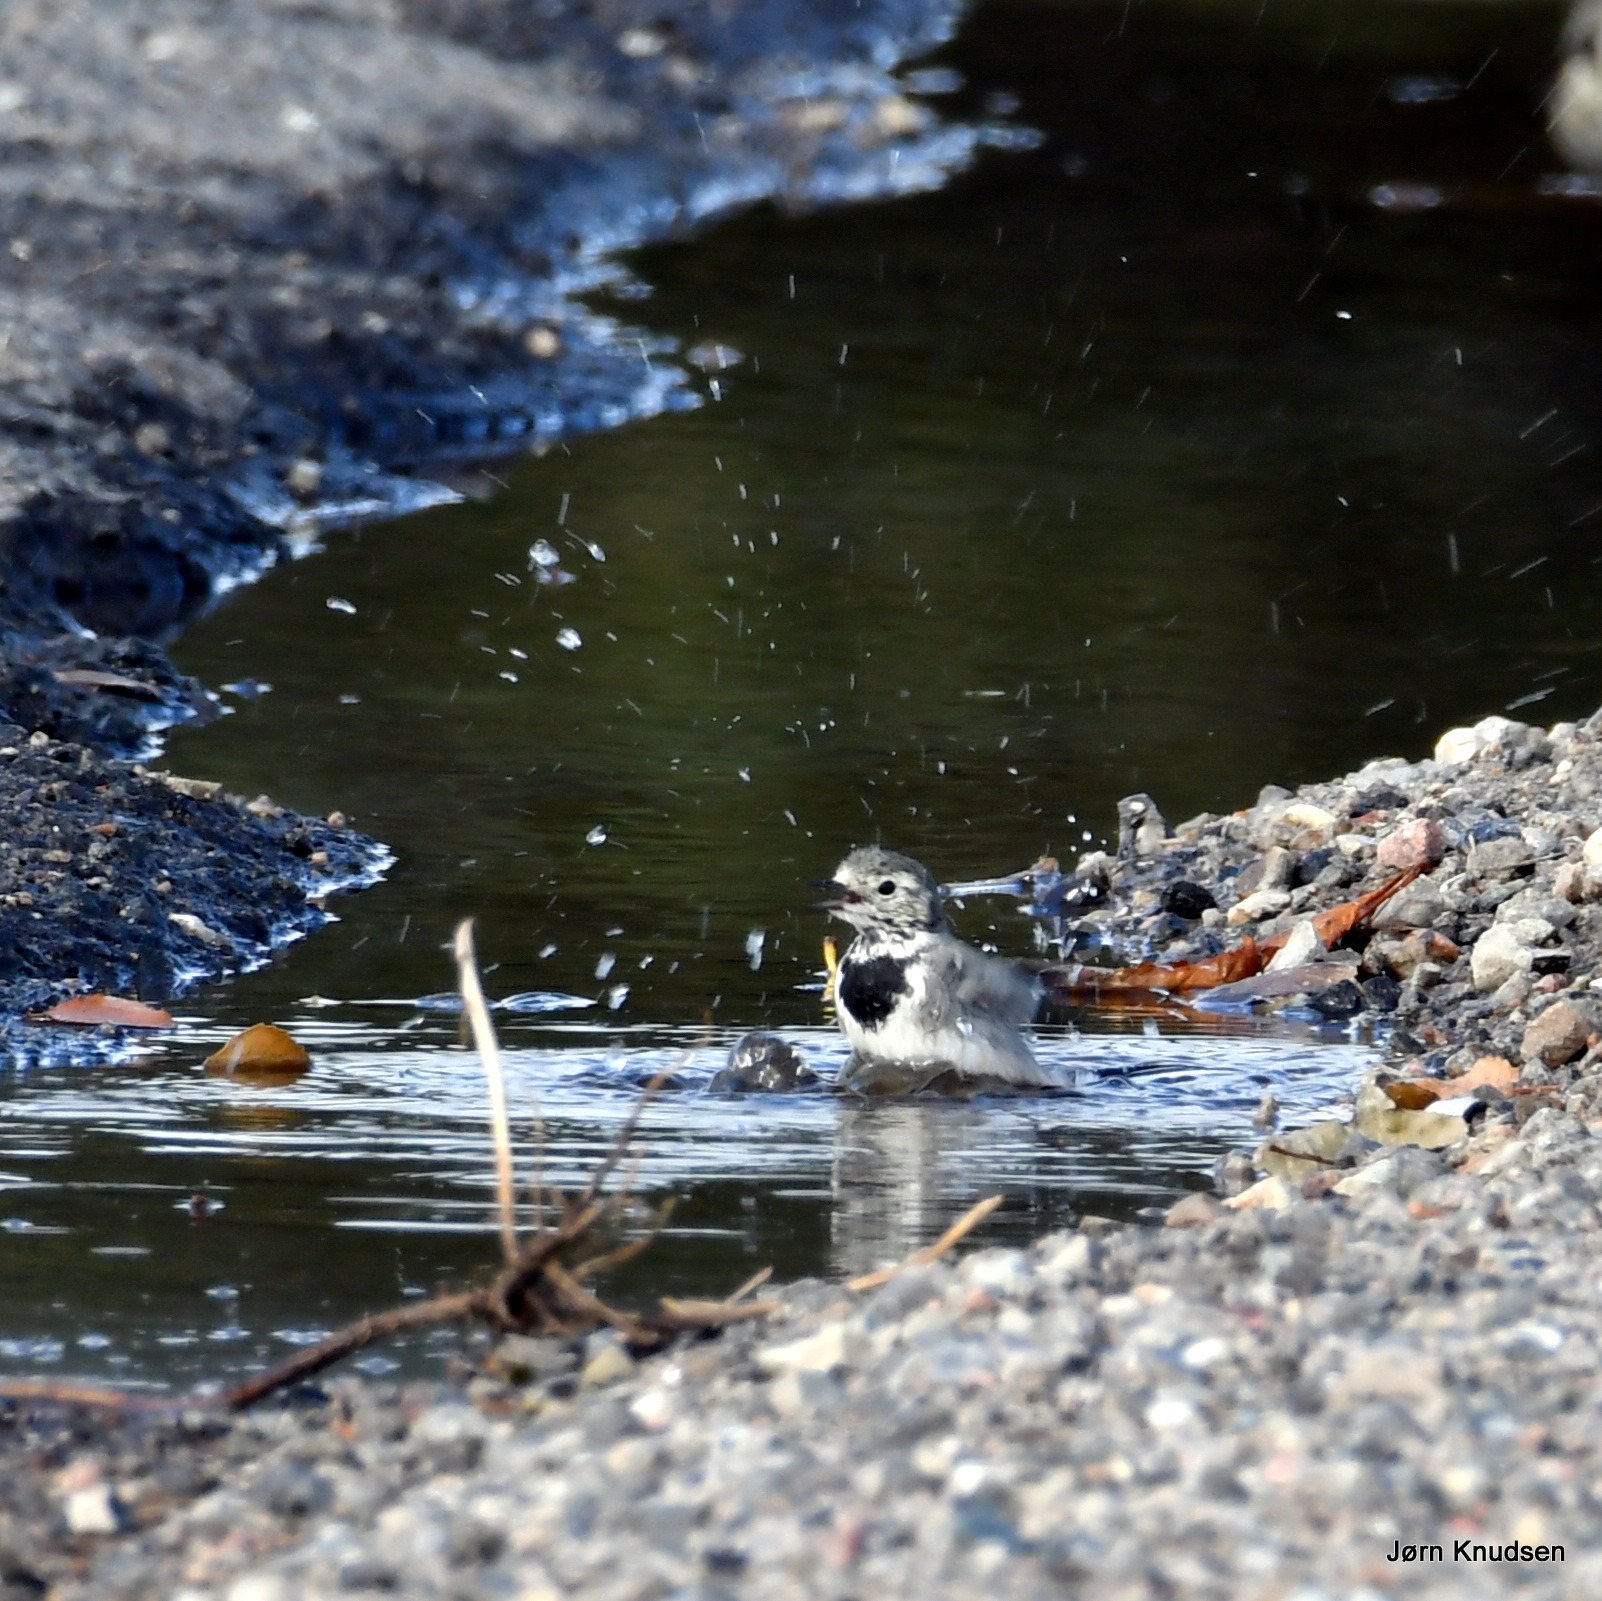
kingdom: Animalia
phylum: Chordata
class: Aves
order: Passeriformes
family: Motacillidae
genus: Motacilla
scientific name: Motacilla alba
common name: Hvid vipstjert
